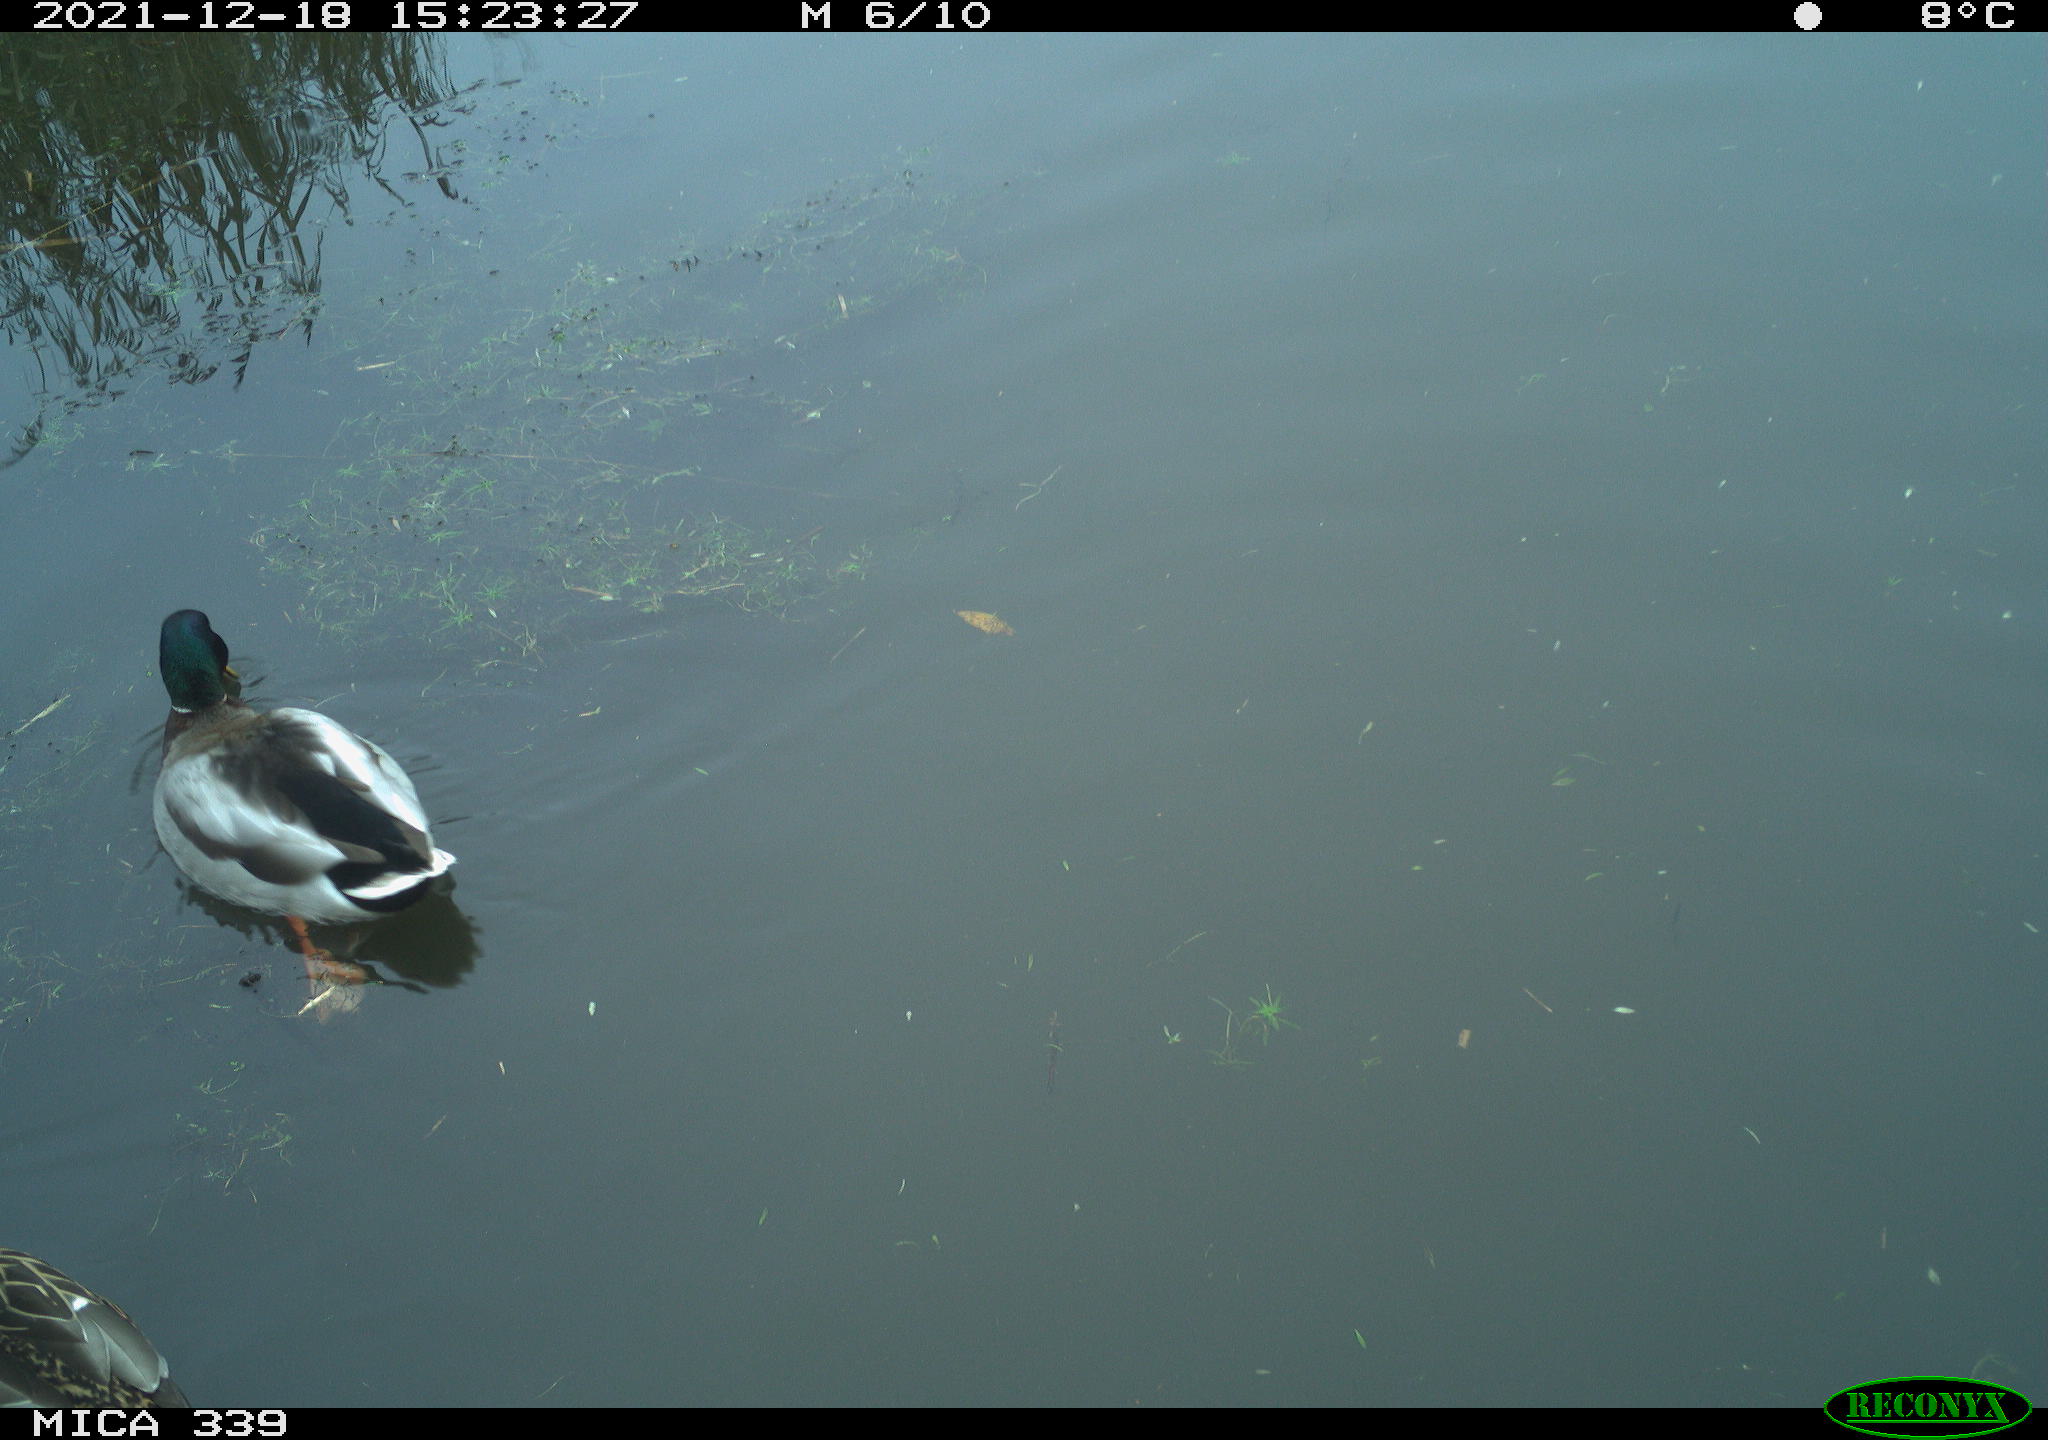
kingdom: Animalia
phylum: Chordata
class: Aves
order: Anseriformes
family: Anatidae
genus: Anas
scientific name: Anas platyrhynchos
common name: Mallard
